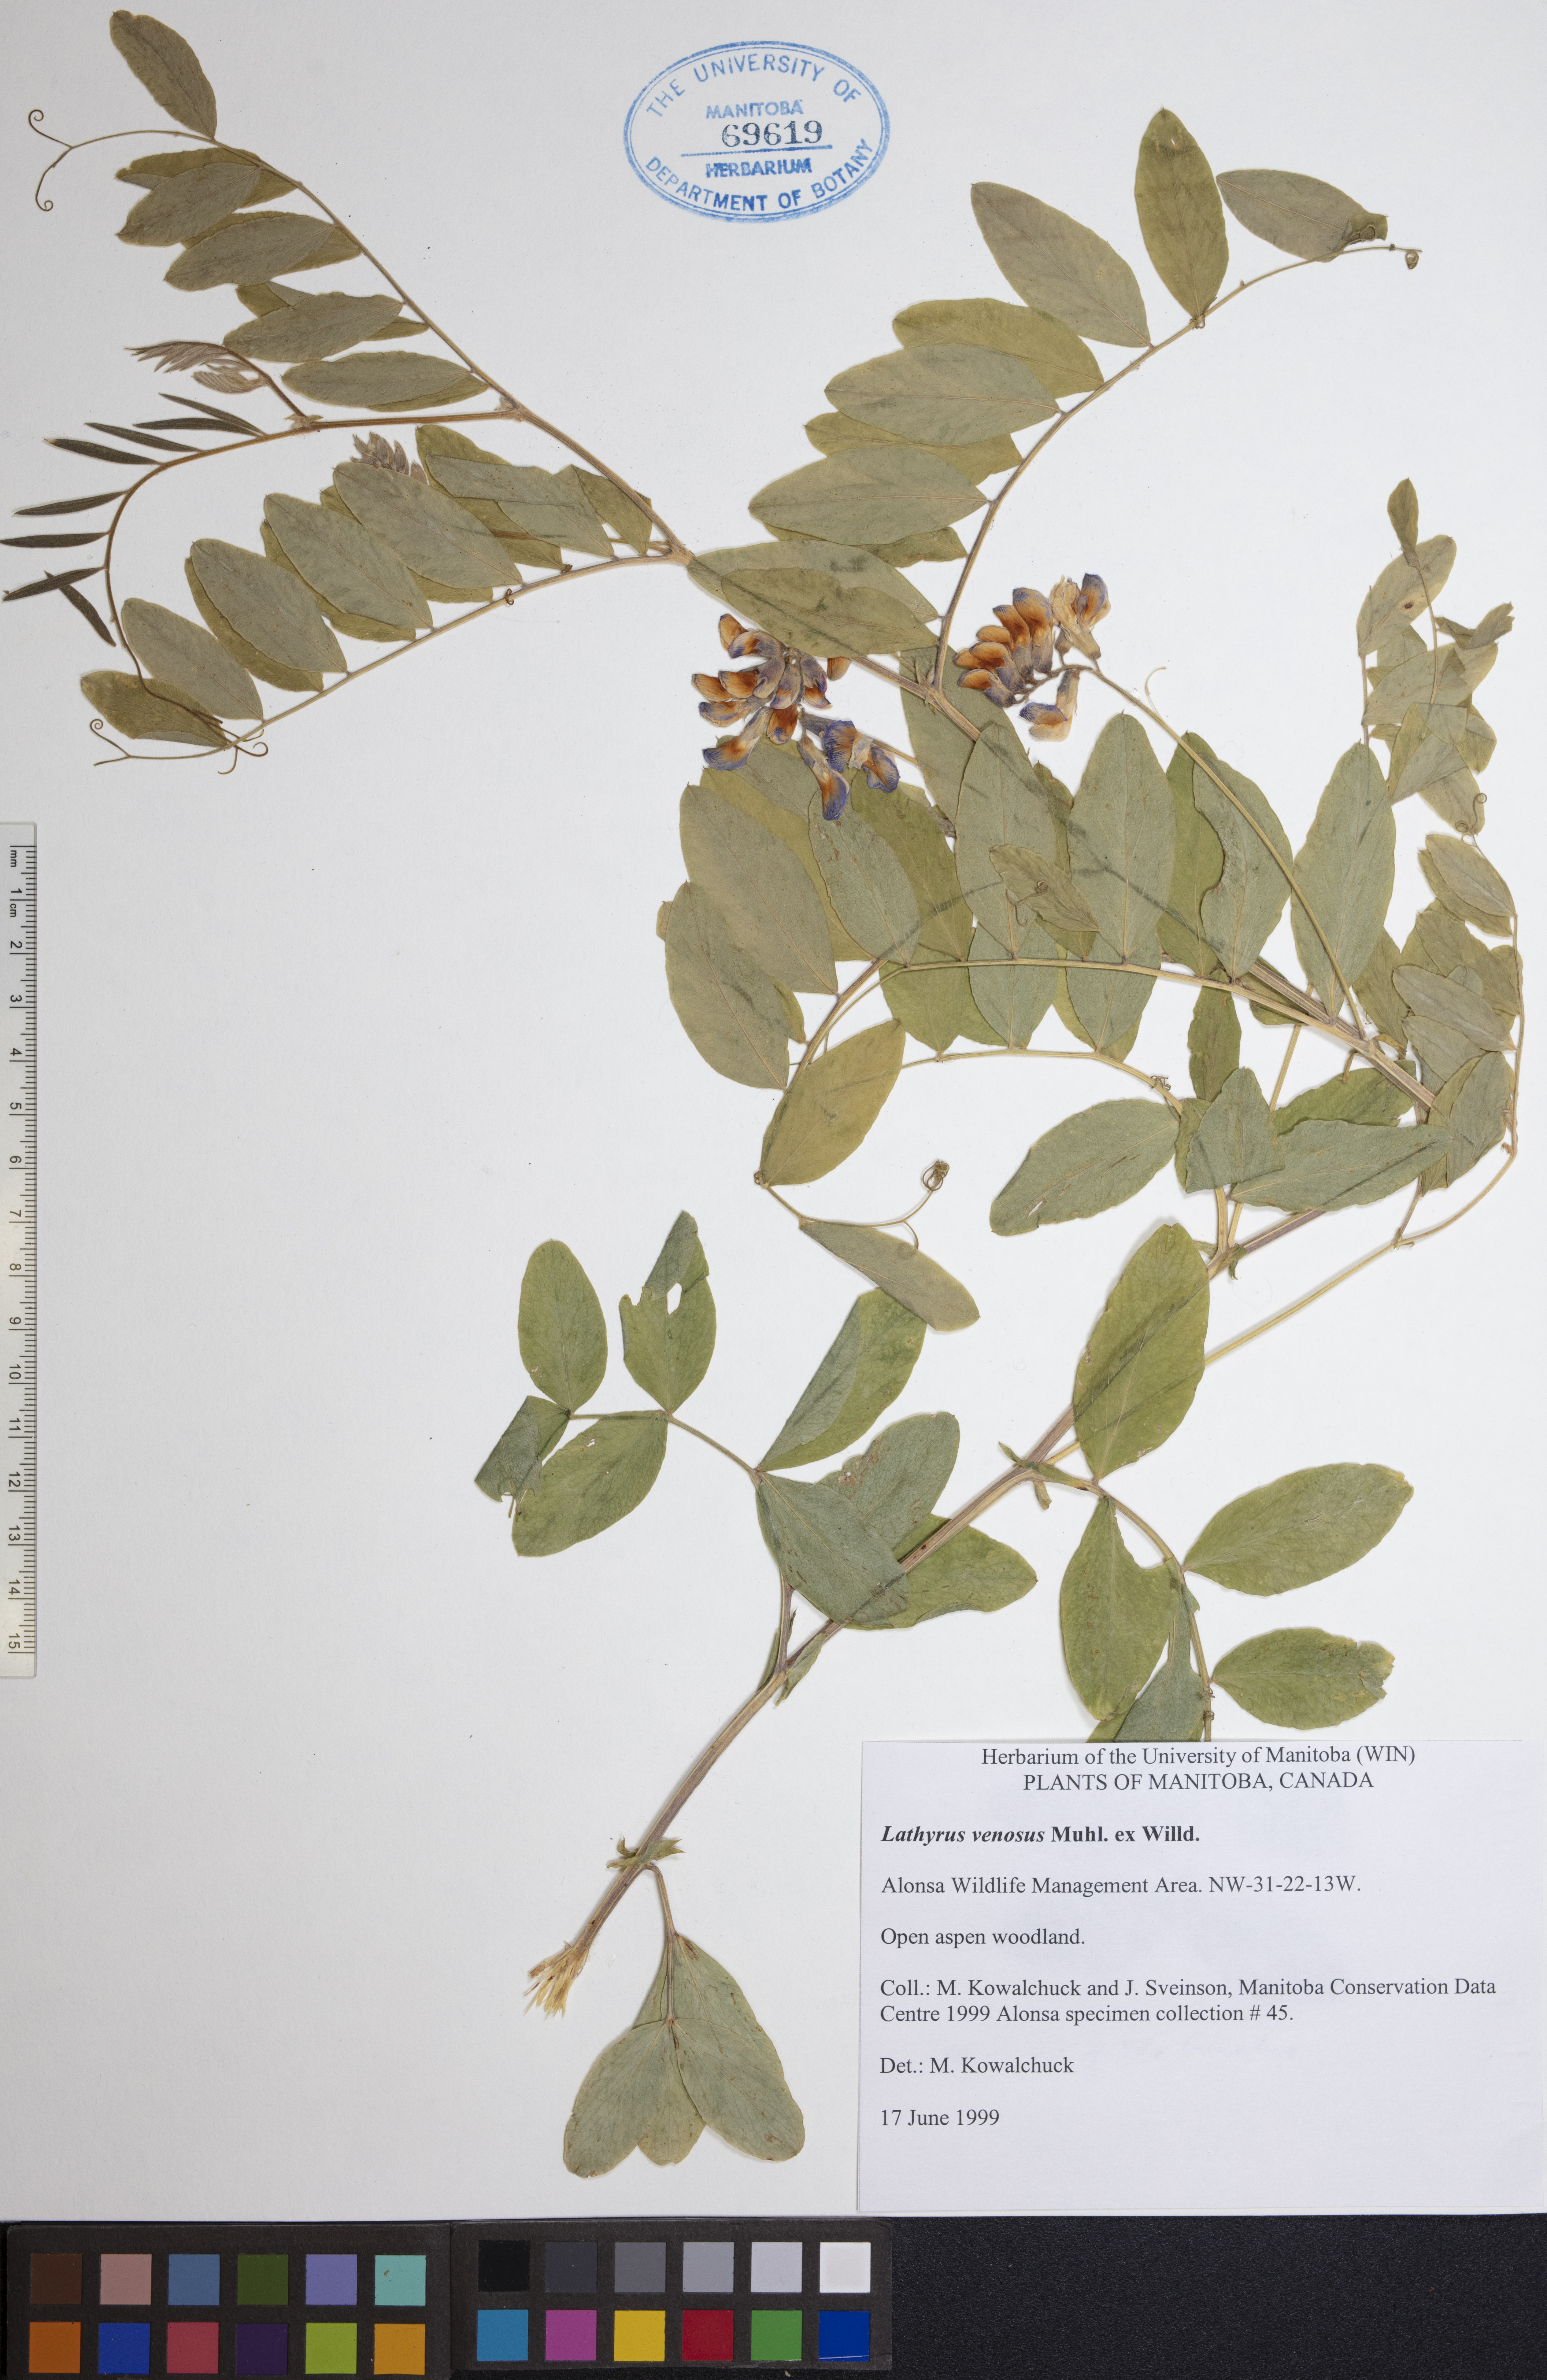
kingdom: Plantae
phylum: Tracheophyta
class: Magnoliopsida
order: Fabales
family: Fabaceae
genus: Lathyrus
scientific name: Lathyrus venosus
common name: Forest-pea
